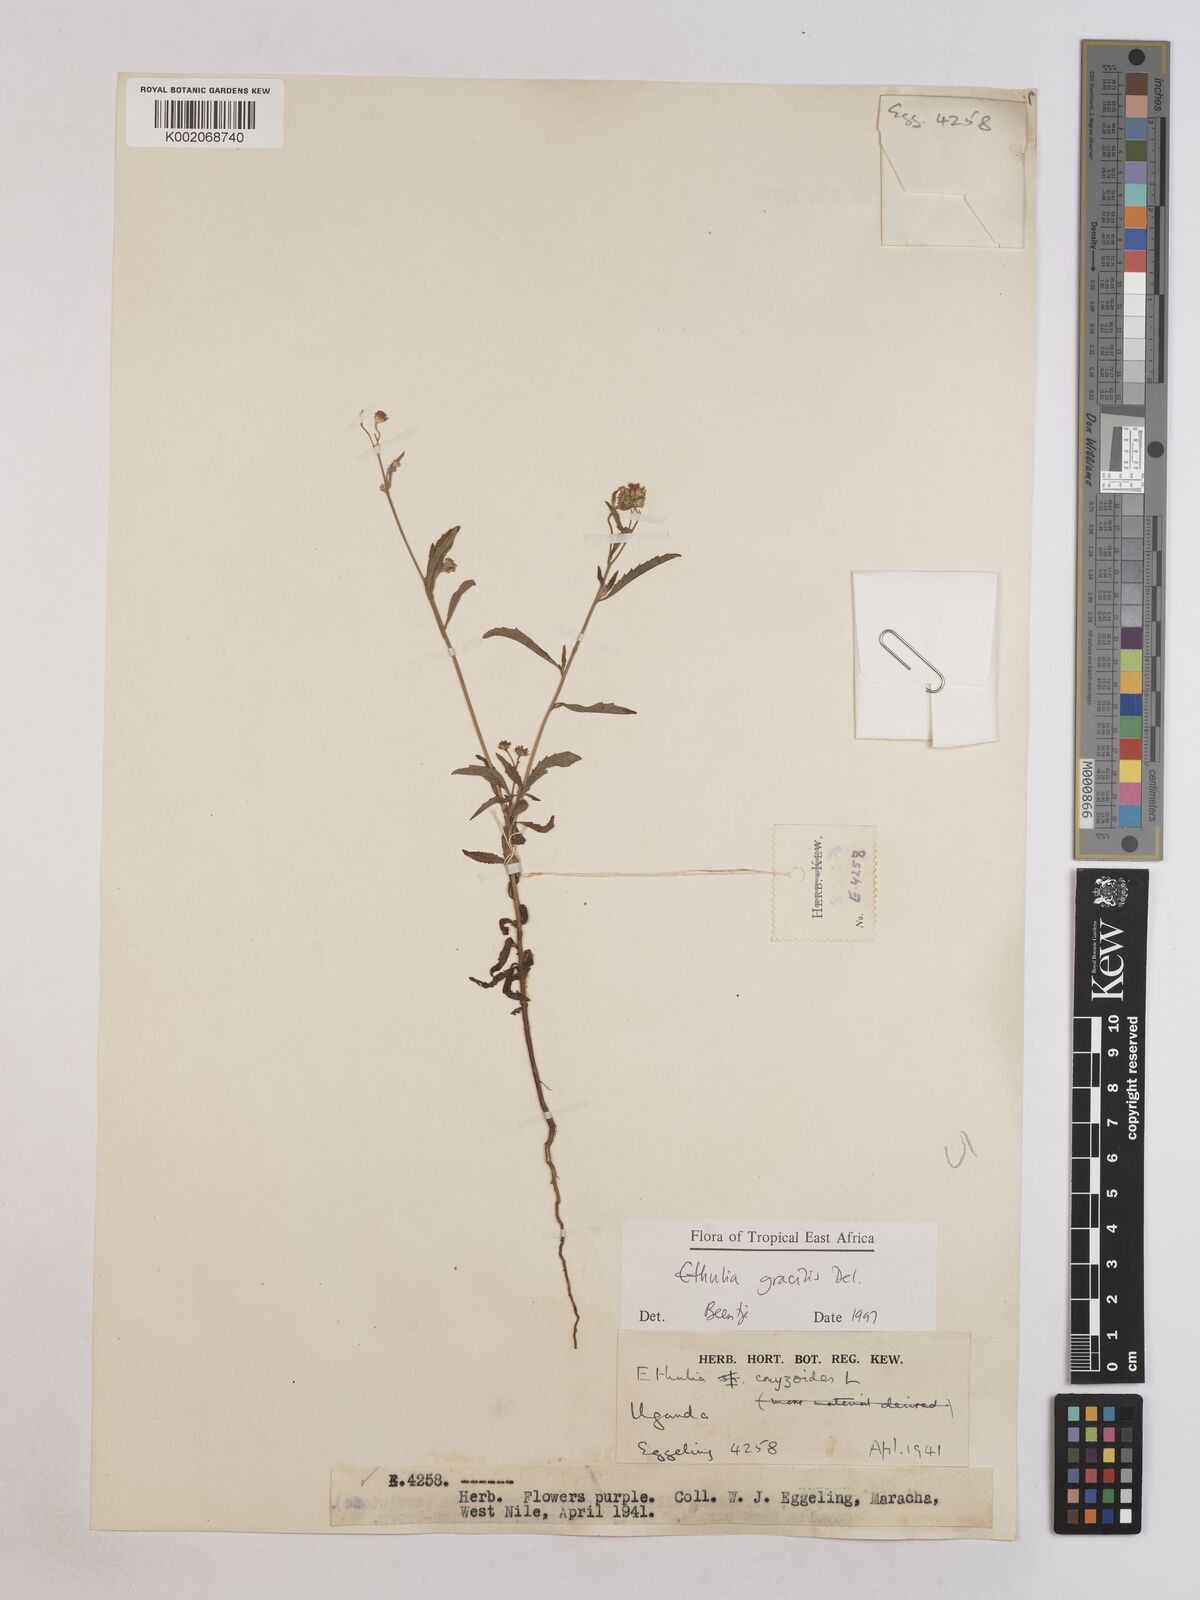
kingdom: Plantae
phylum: Tracheophyta
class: Magnoliopsida
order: Asterales
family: Asteraceae
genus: Ethulia
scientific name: Ethulia gracilis
